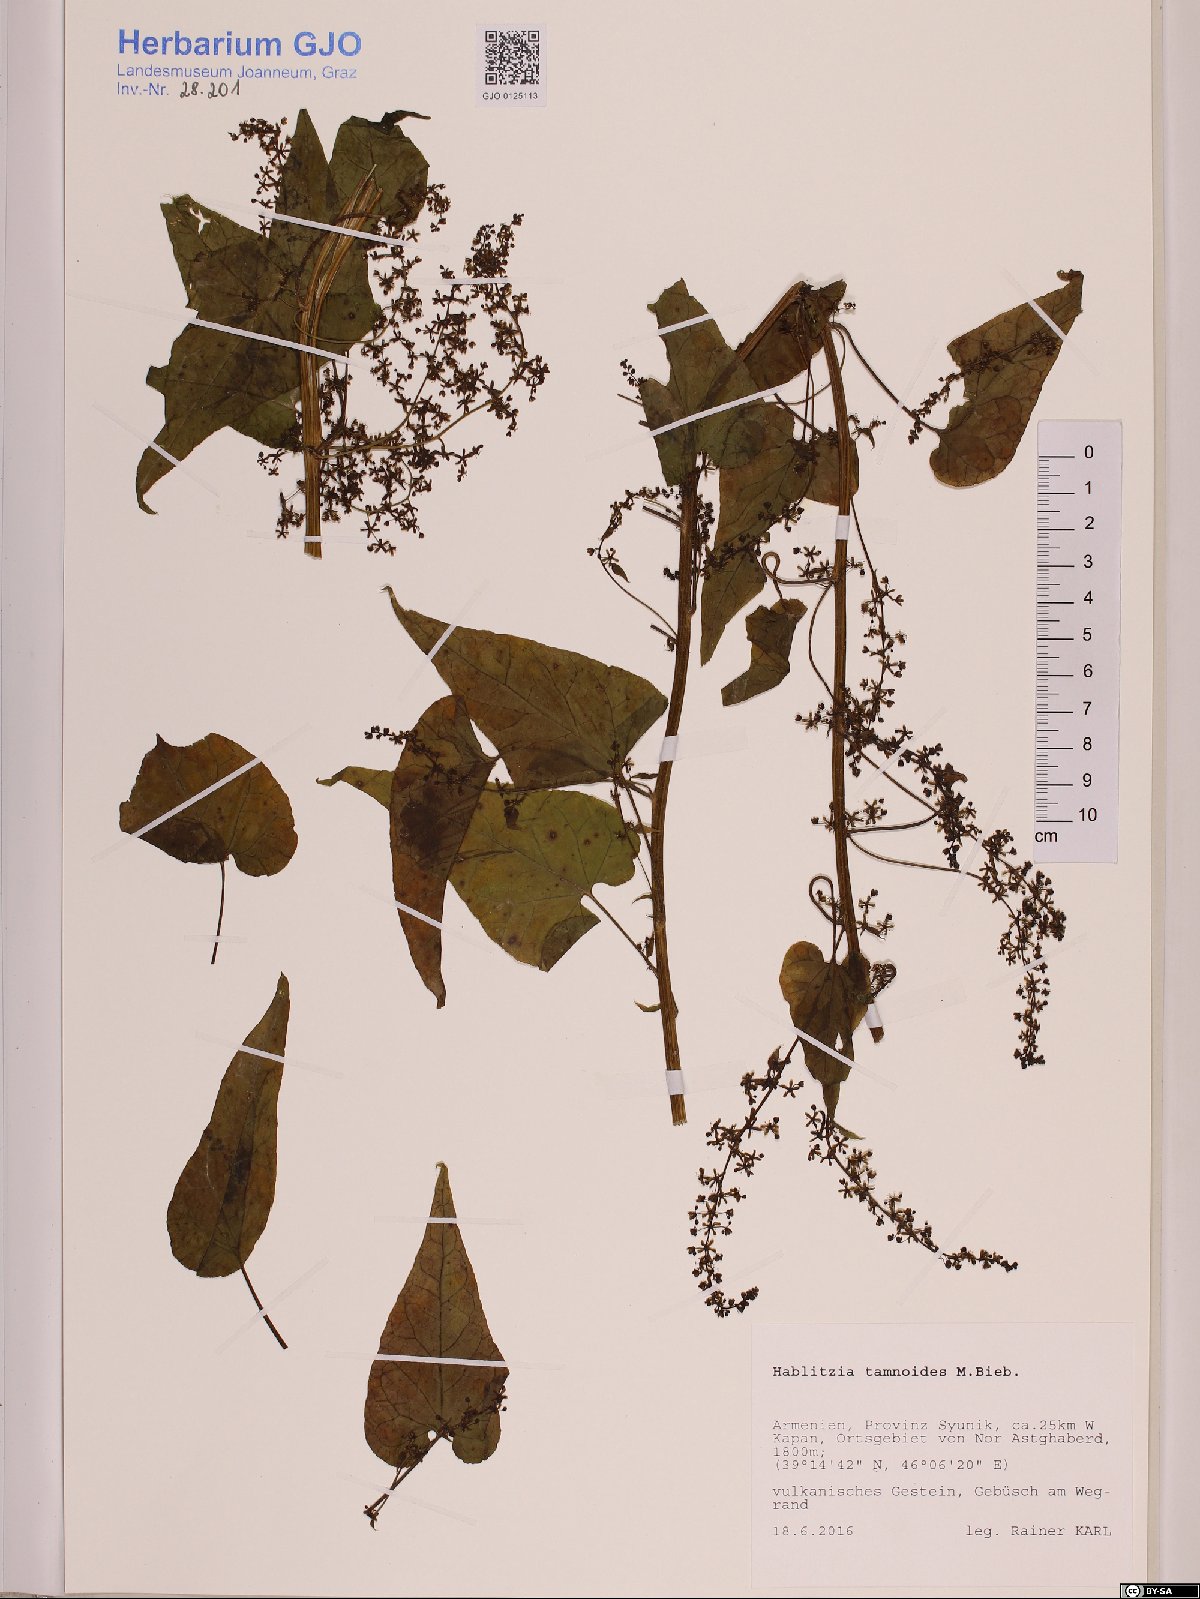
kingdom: Plantae
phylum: Tracheophyta
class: Magnoliopsida
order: Caryophyllales
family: Amaranthaceae
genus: Hablitzia
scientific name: Hablitzia tamnoides
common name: Caucasian-spinach
